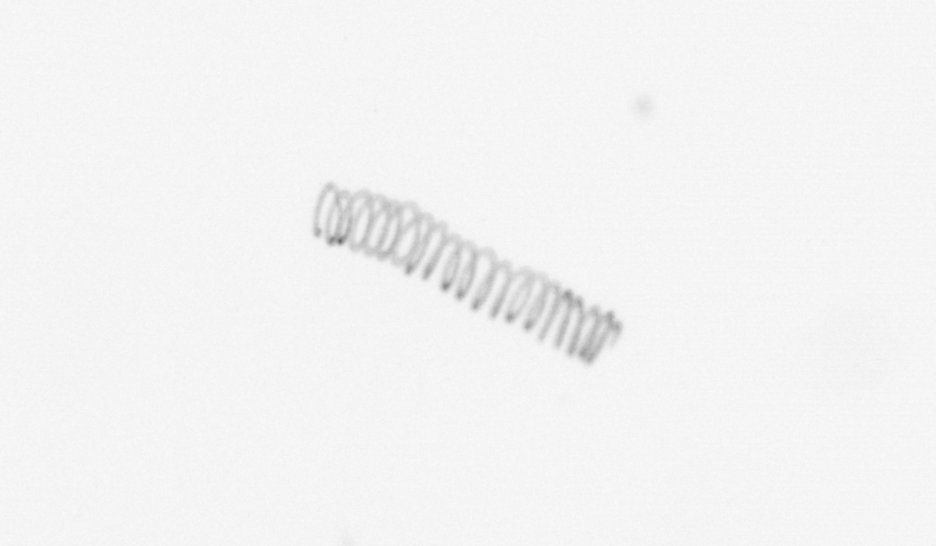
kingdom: Chromista
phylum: Ochrophyta
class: Bacillariophyceae
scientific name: Bacillariophyceae
